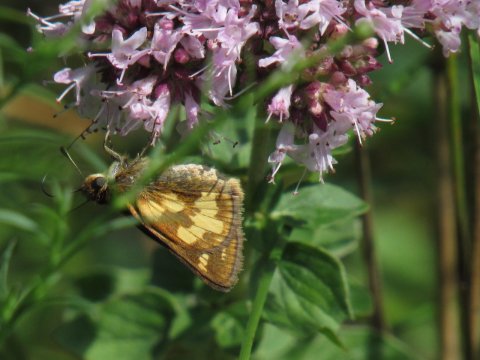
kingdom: Animalia
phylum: Arthropoda
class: Insecta
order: Lepidoptera
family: Hesperiidae
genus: Polites
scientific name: Polites coras
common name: Peck's Skipper
